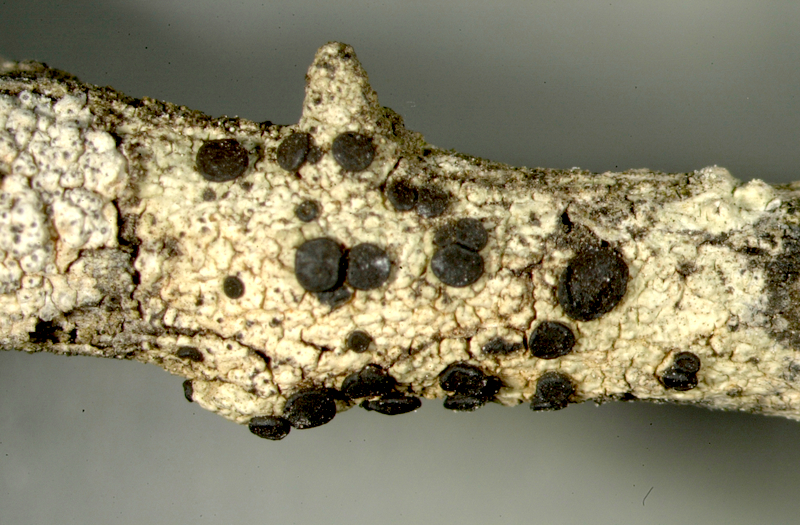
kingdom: Fungi
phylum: Ascomycota
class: Lecanoromycetes
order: Lecanorales
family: Lecanoraceae
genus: Lecidella
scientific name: Lecidella
